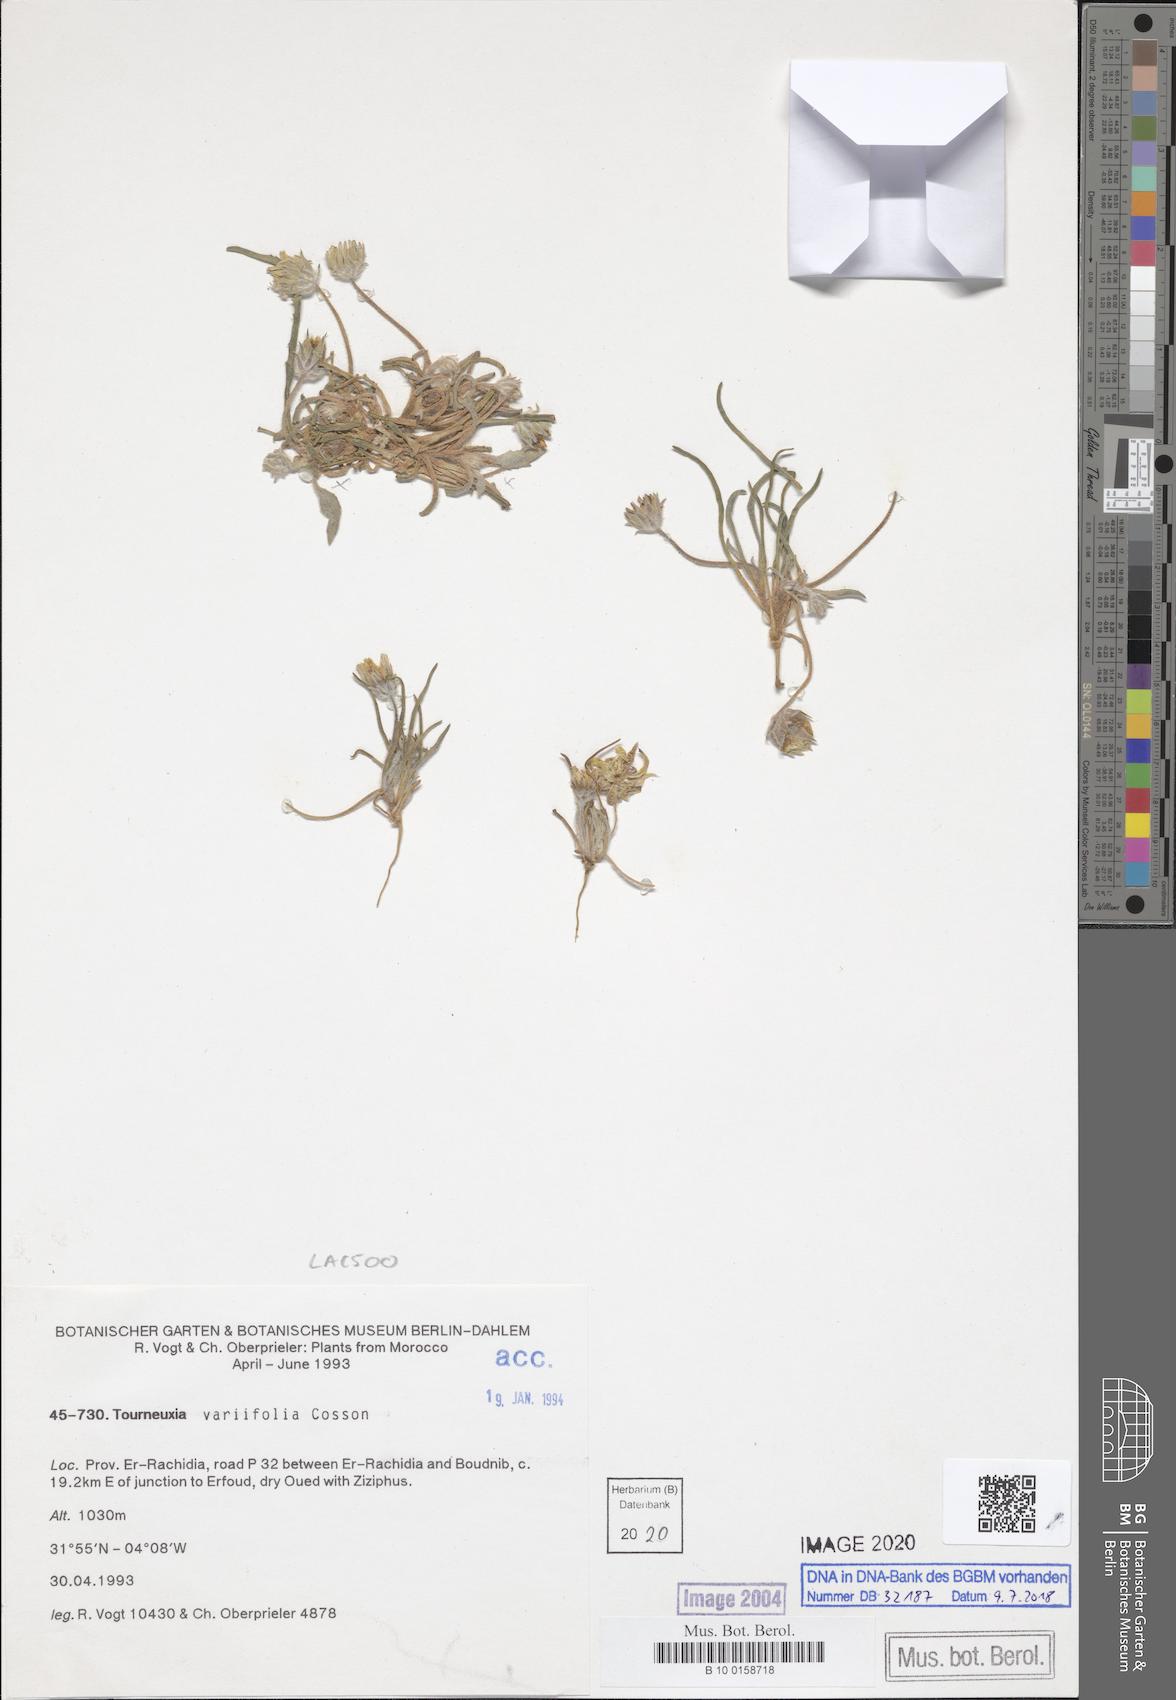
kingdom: Plantae
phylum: Tracheophyta
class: Magnoliopsida
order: Asterales
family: Asteraceae
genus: Tourneuxia
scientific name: Tourneuxia variifolia
